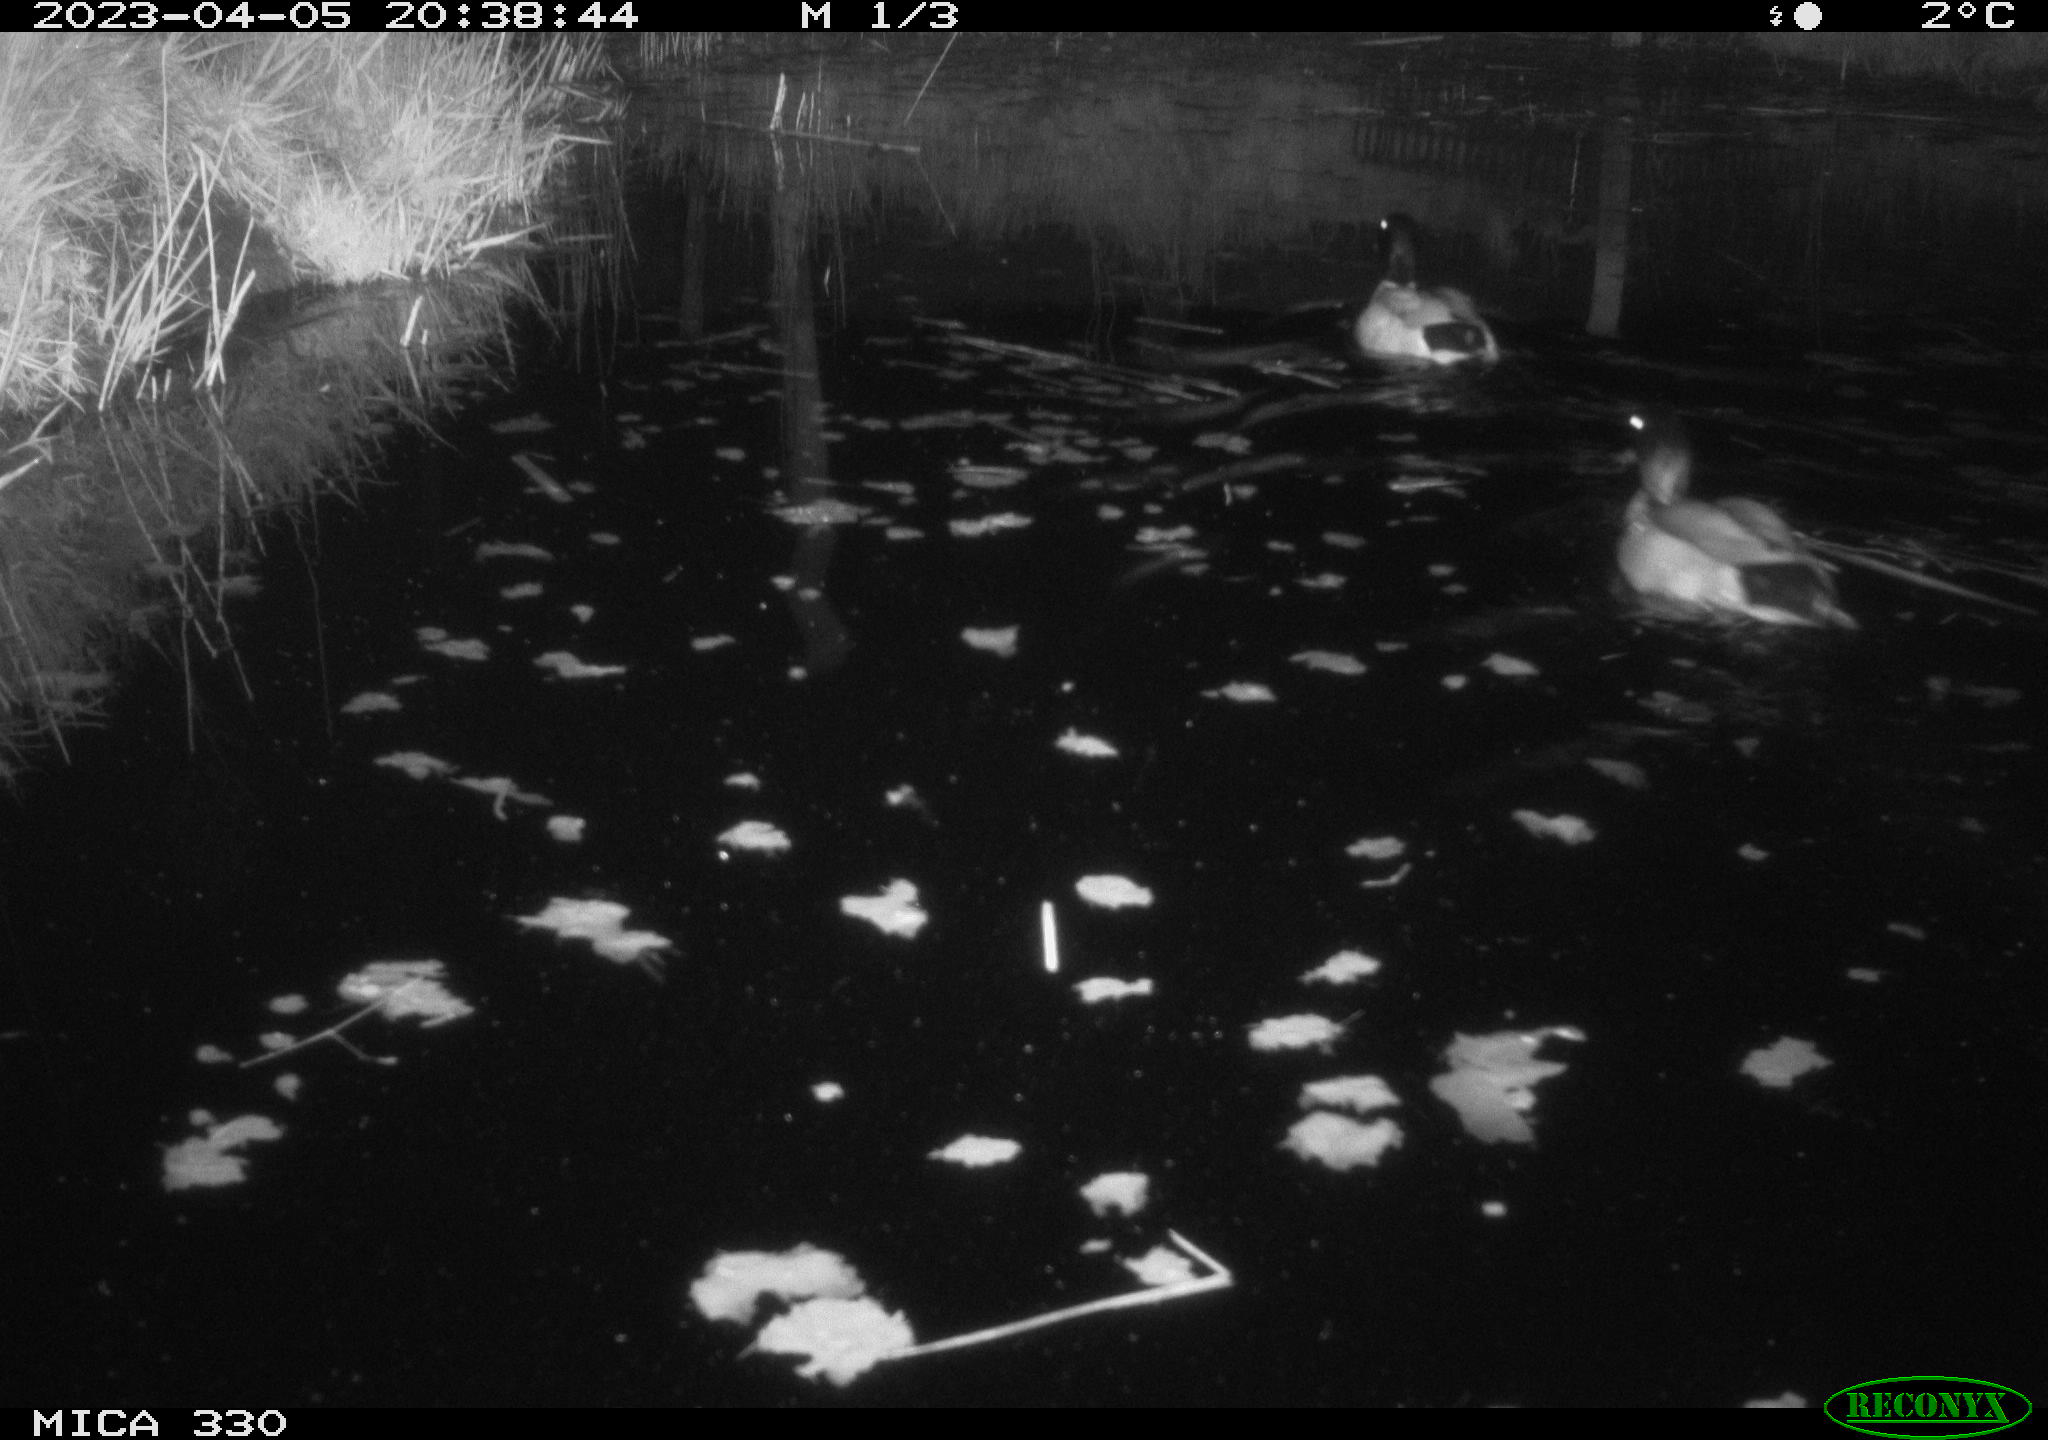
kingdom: Animalia
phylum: Chordata
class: Aves
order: Anseriformes
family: Anatidae
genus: Anas
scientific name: Anas
